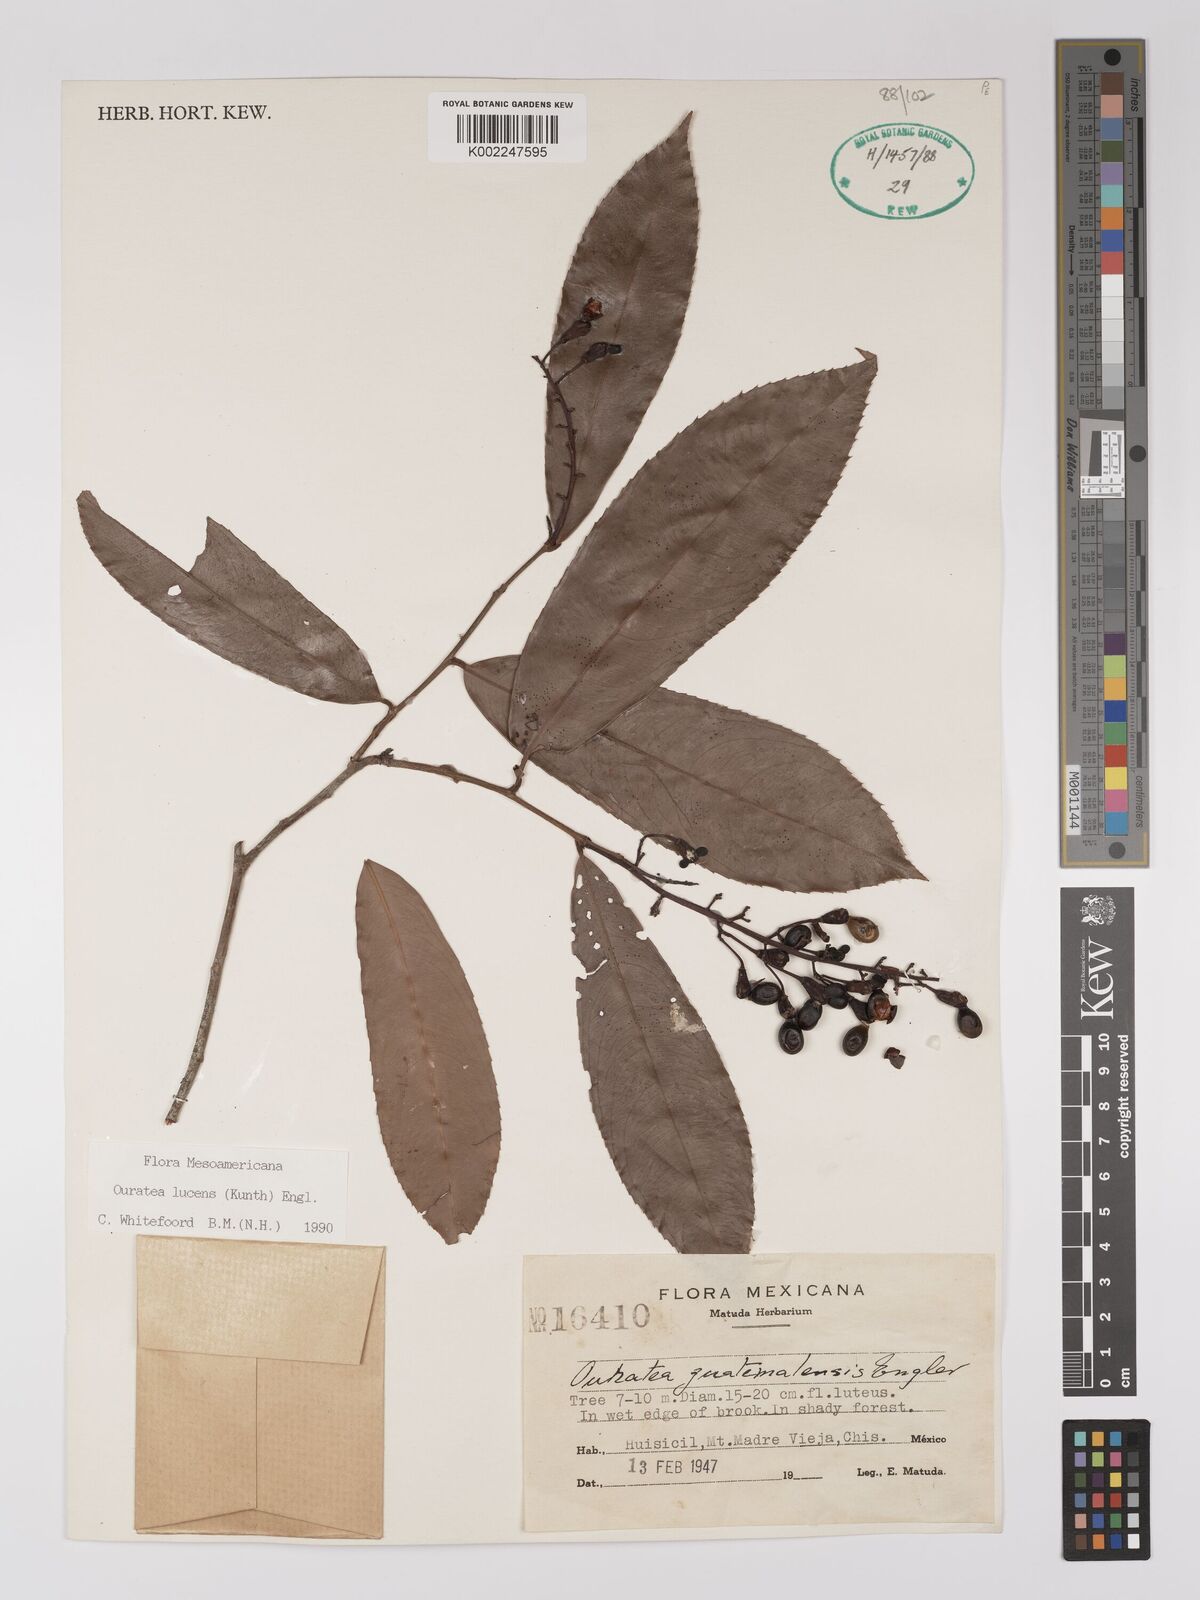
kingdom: Plantae
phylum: Tracheophyta
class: Magnoliopsida
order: Malpighiales
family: Ochnaceae
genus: Ouratea
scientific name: Ouratea lucens
